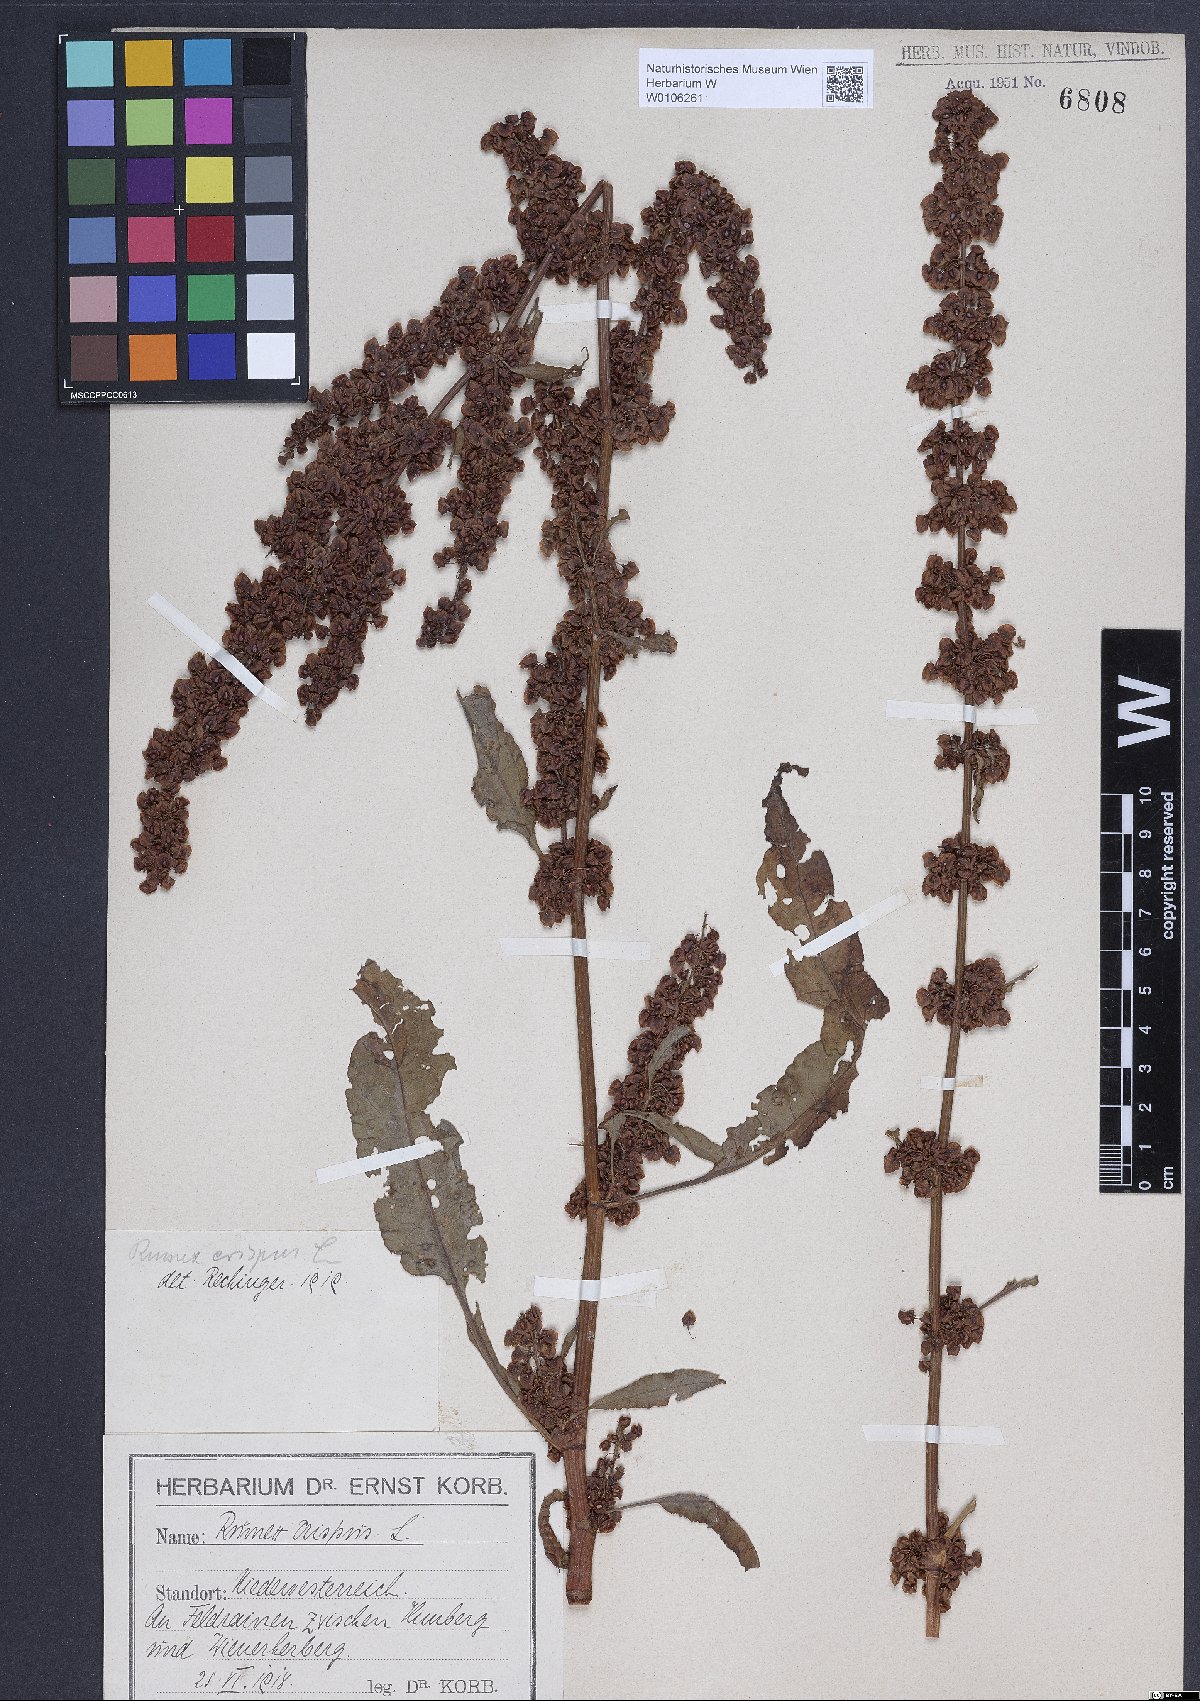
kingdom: Plantae
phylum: Tracheophyta
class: Magnoliopsida
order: Caryophyllales
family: Polygonaceae
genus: Rumex
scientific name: Rumex crispus
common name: Curled dock
